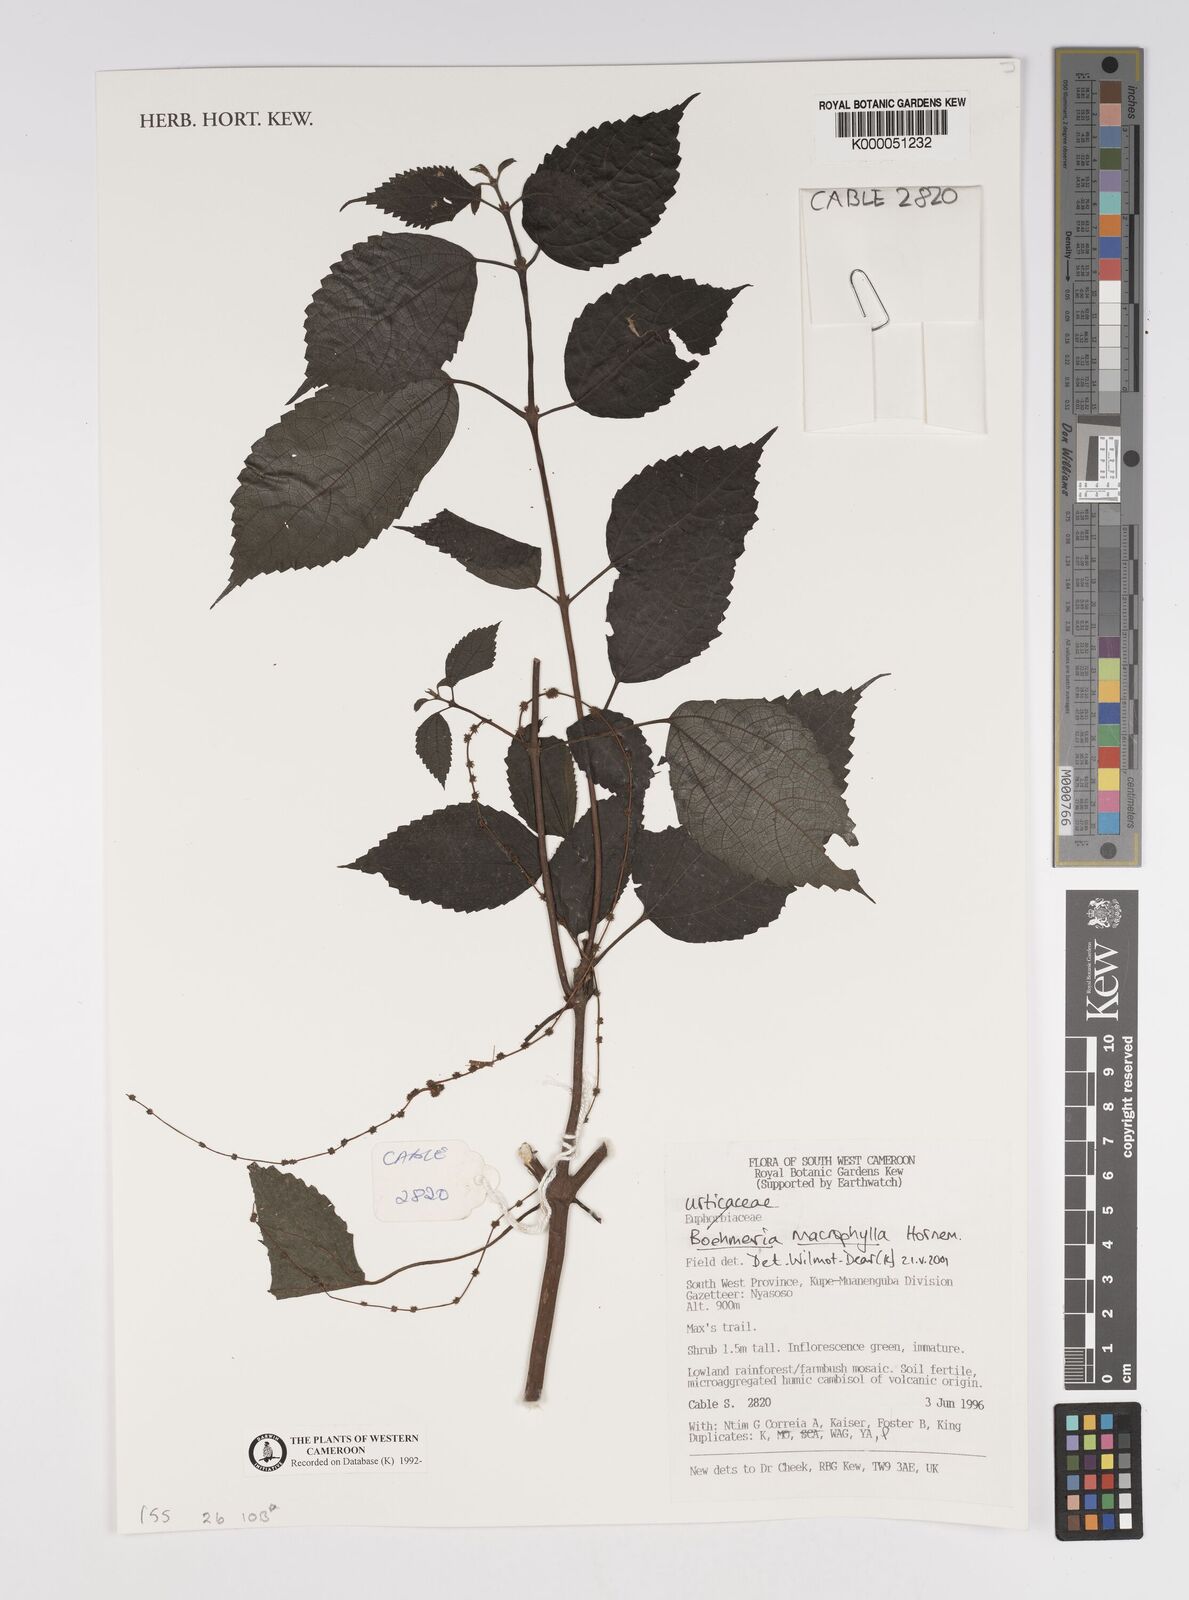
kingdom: Plantae
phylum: Tracheophyta
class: Magnoliopsida
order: Rosales
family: Urticaceae
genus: Boehmeria
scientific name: Boehmeria virgata
